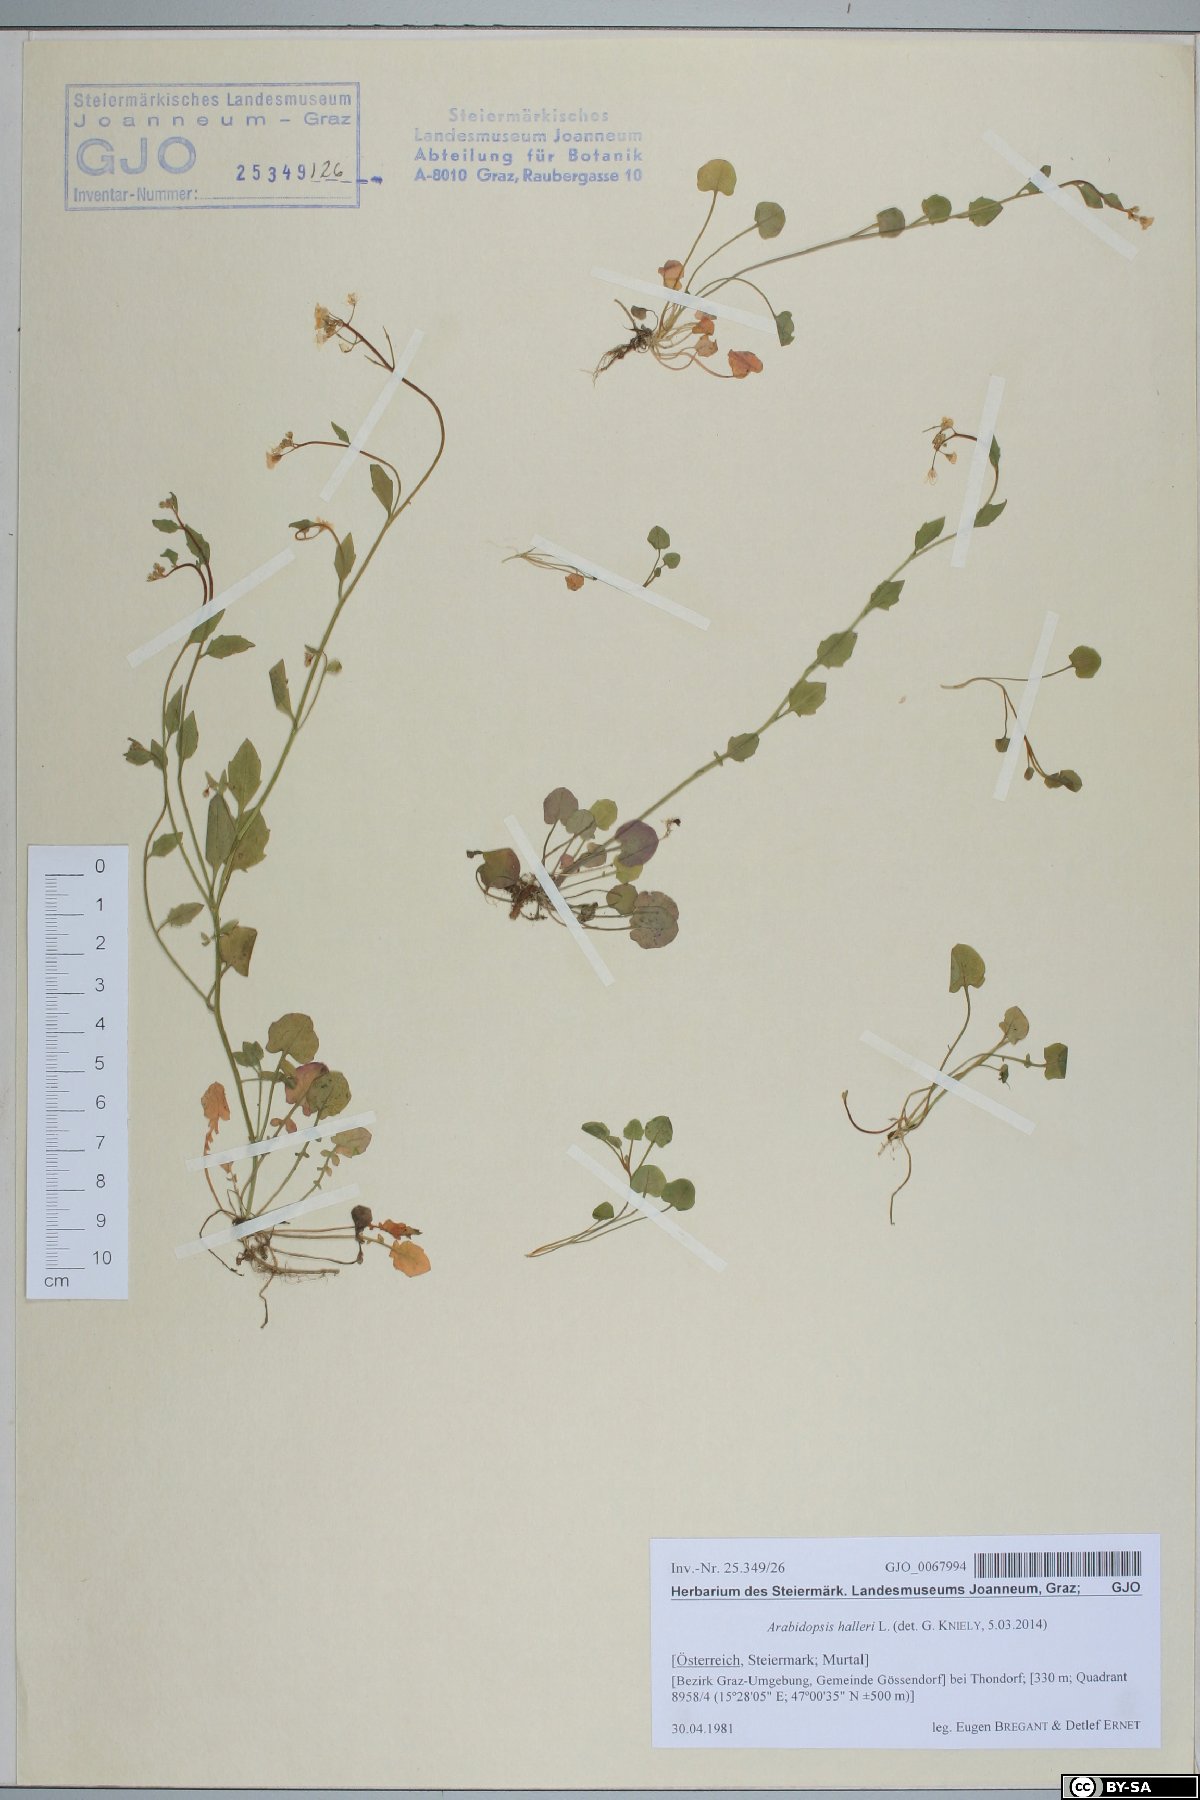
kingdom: Plantae
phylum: Tracheophyta
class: Magnoliopsida
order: Brassicales
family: Brassicaceae
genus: Arabidopsis
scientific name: Arabidopsis halleri
